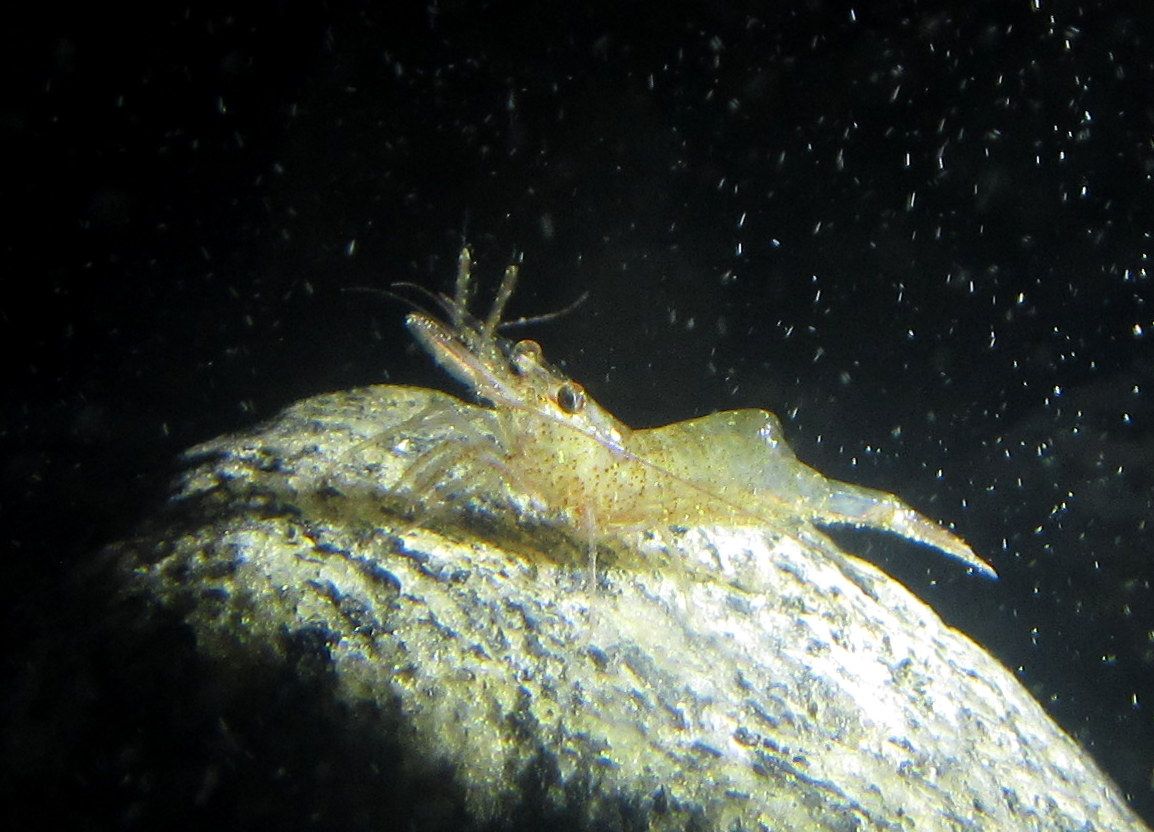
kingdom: Animalia
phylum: Arthropoda
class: Malacostraca
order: Decapoda
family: Thoridae
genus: Eualus
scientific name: Eualus gaimardii
